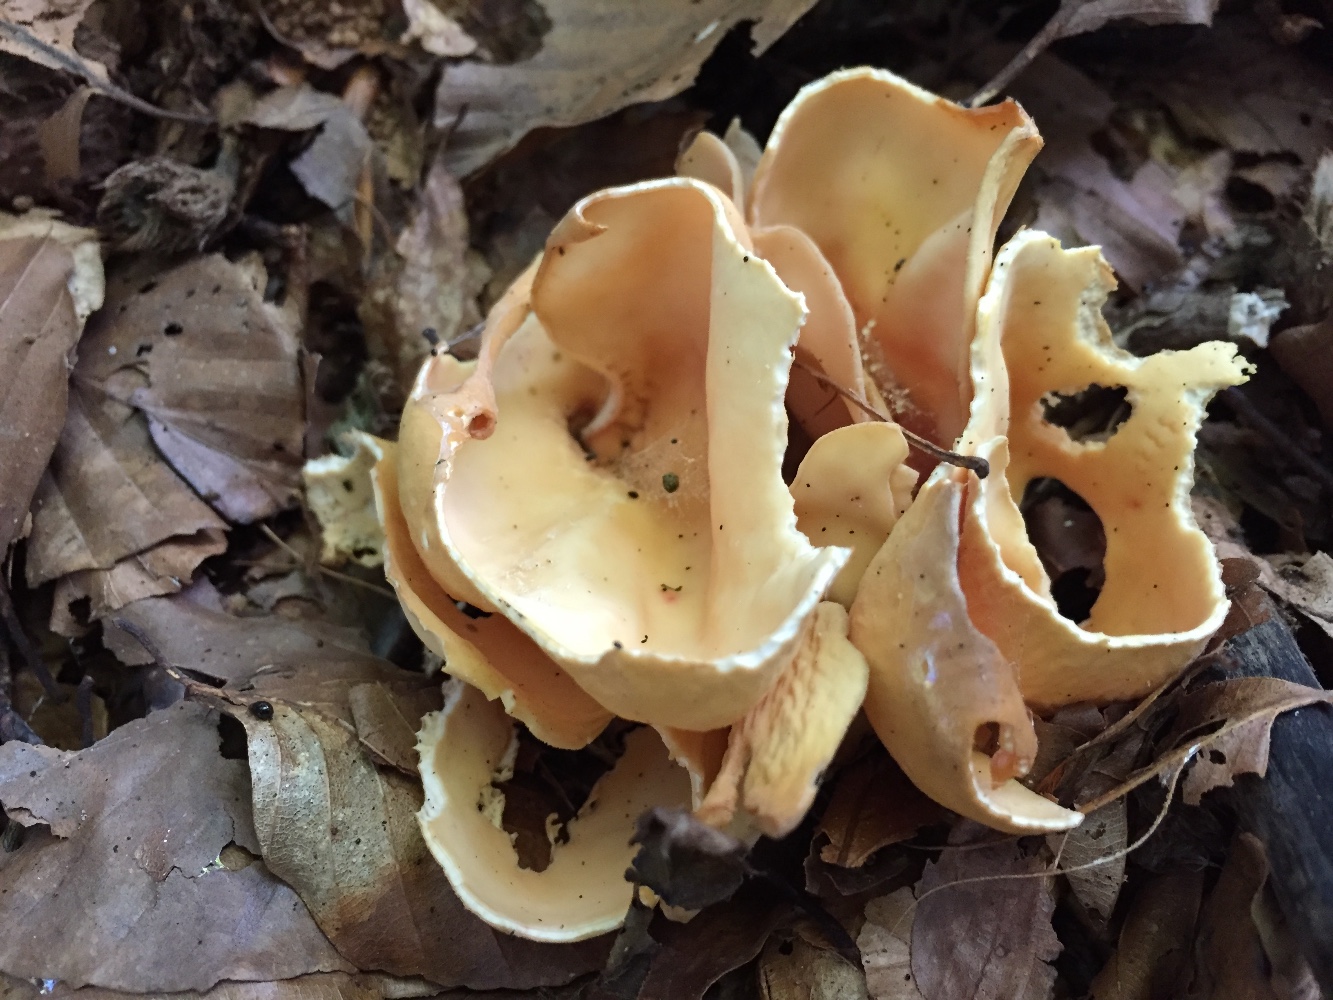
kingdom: Fungi
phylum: Ascomycota
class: Pezizomycetes
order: Pezizales
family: Otideaceae
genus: Otidea
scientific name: Otidea onotica
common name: æsel-ørebæger
